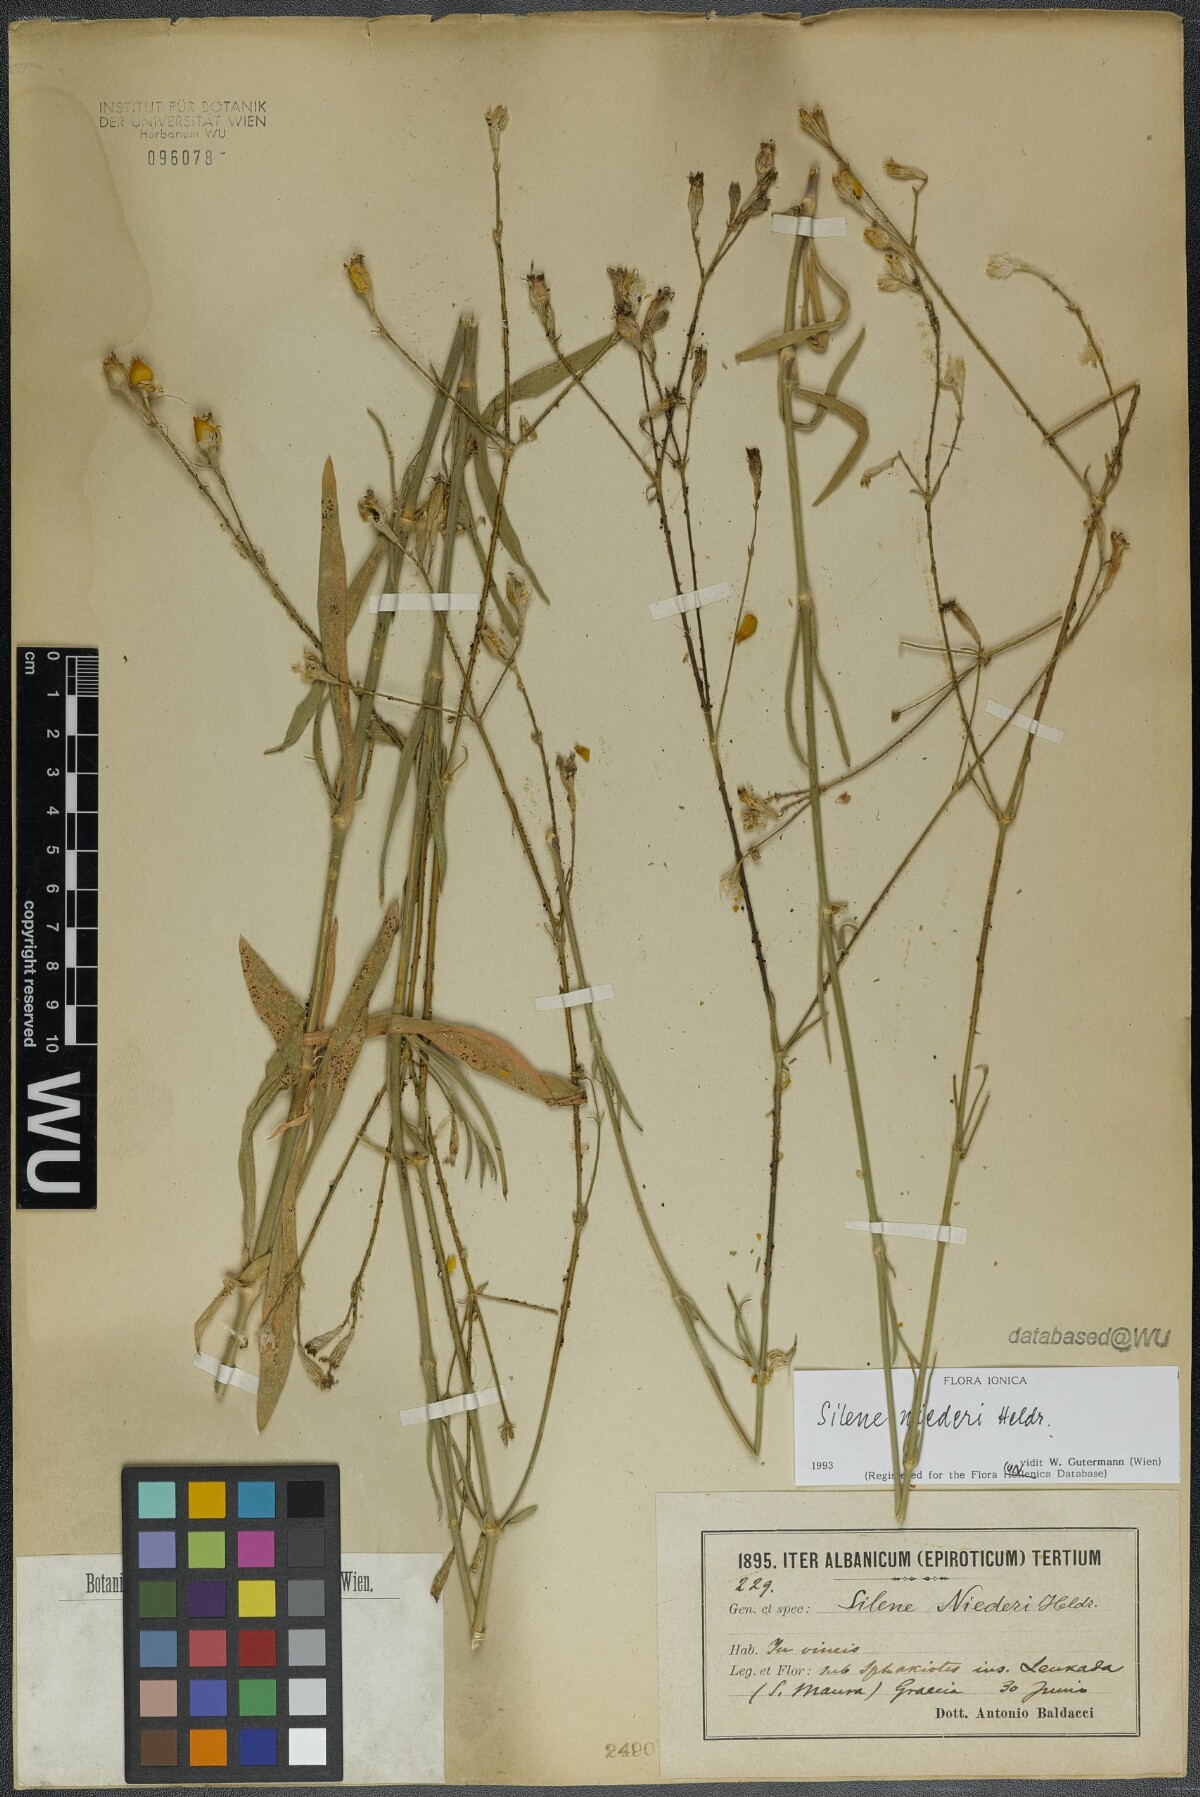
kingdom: Plantae
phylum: Tracheophyta
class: Magnoliopsida
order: Caryophyllales
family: Caryophyllaceae
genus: Silene
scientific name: Silene niederi
